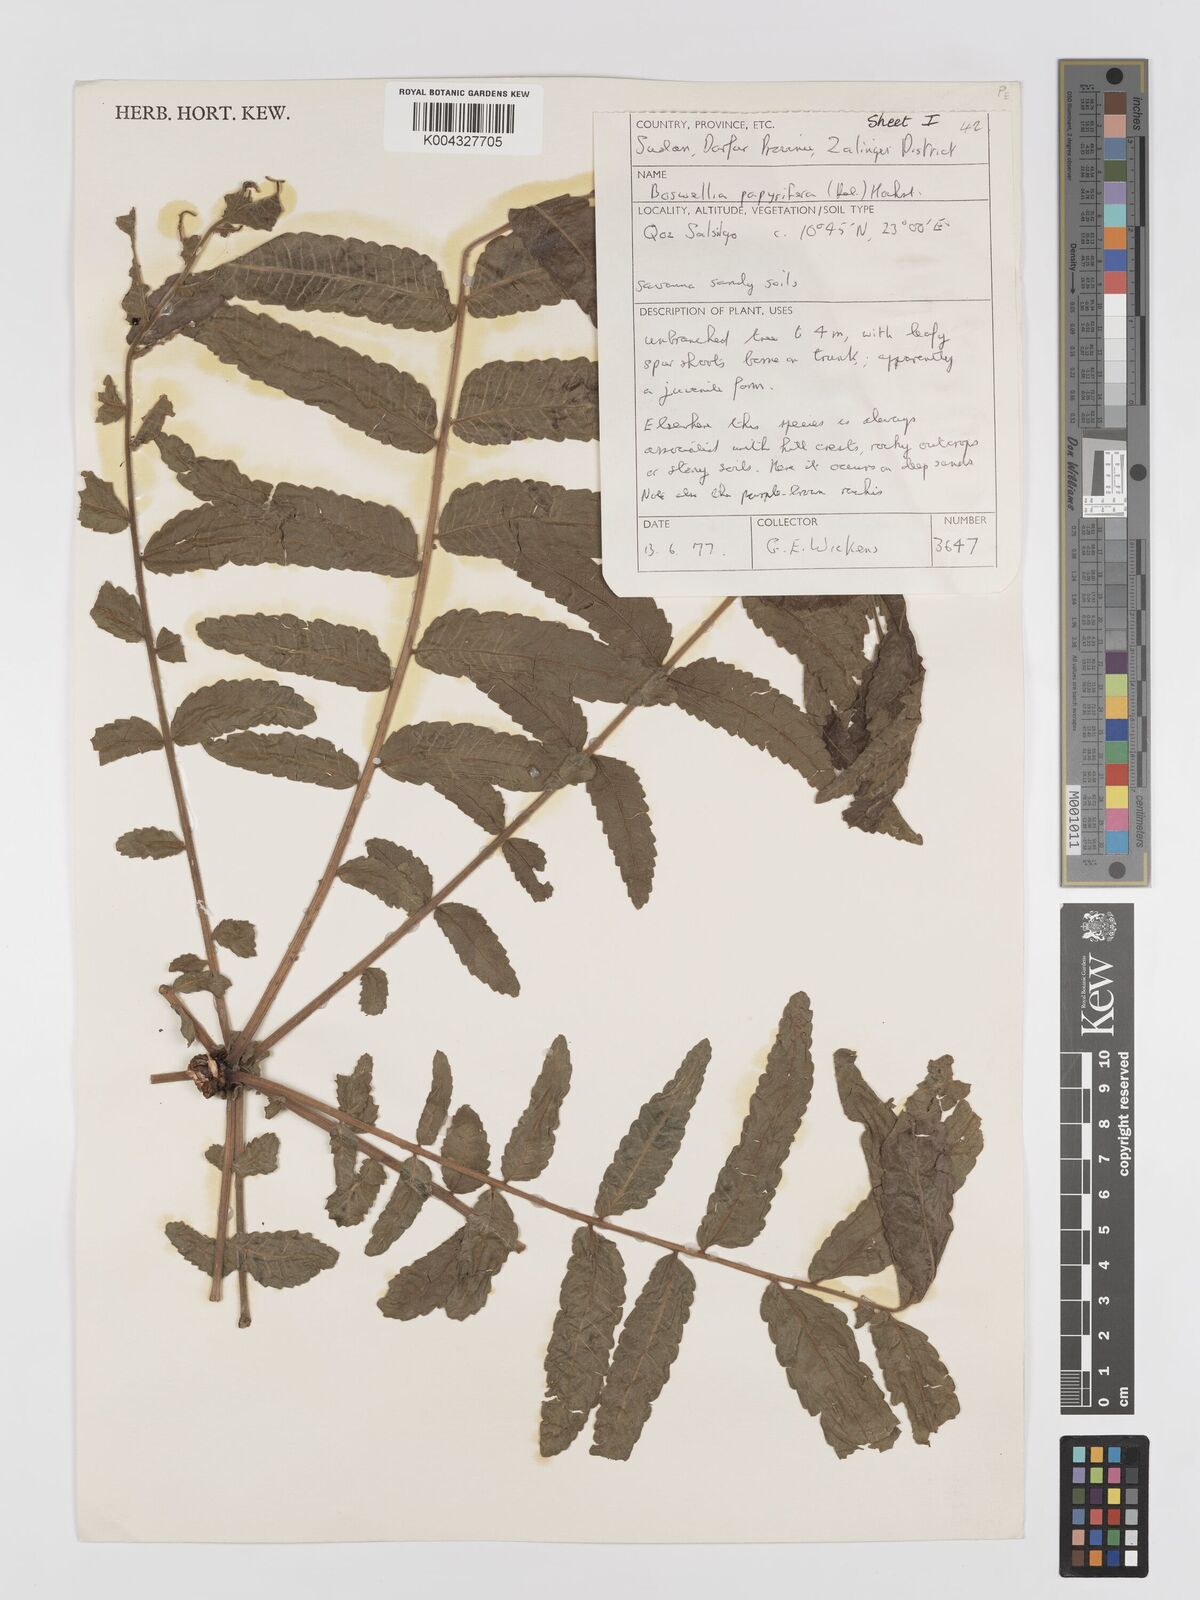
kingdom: Plantae
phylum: Tracheophyta
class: Magnoliopsida
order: Sapindales
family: Burseraceae
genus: Boswellia
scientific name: Boswellia papyrifera
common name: Sudanese frankincense
